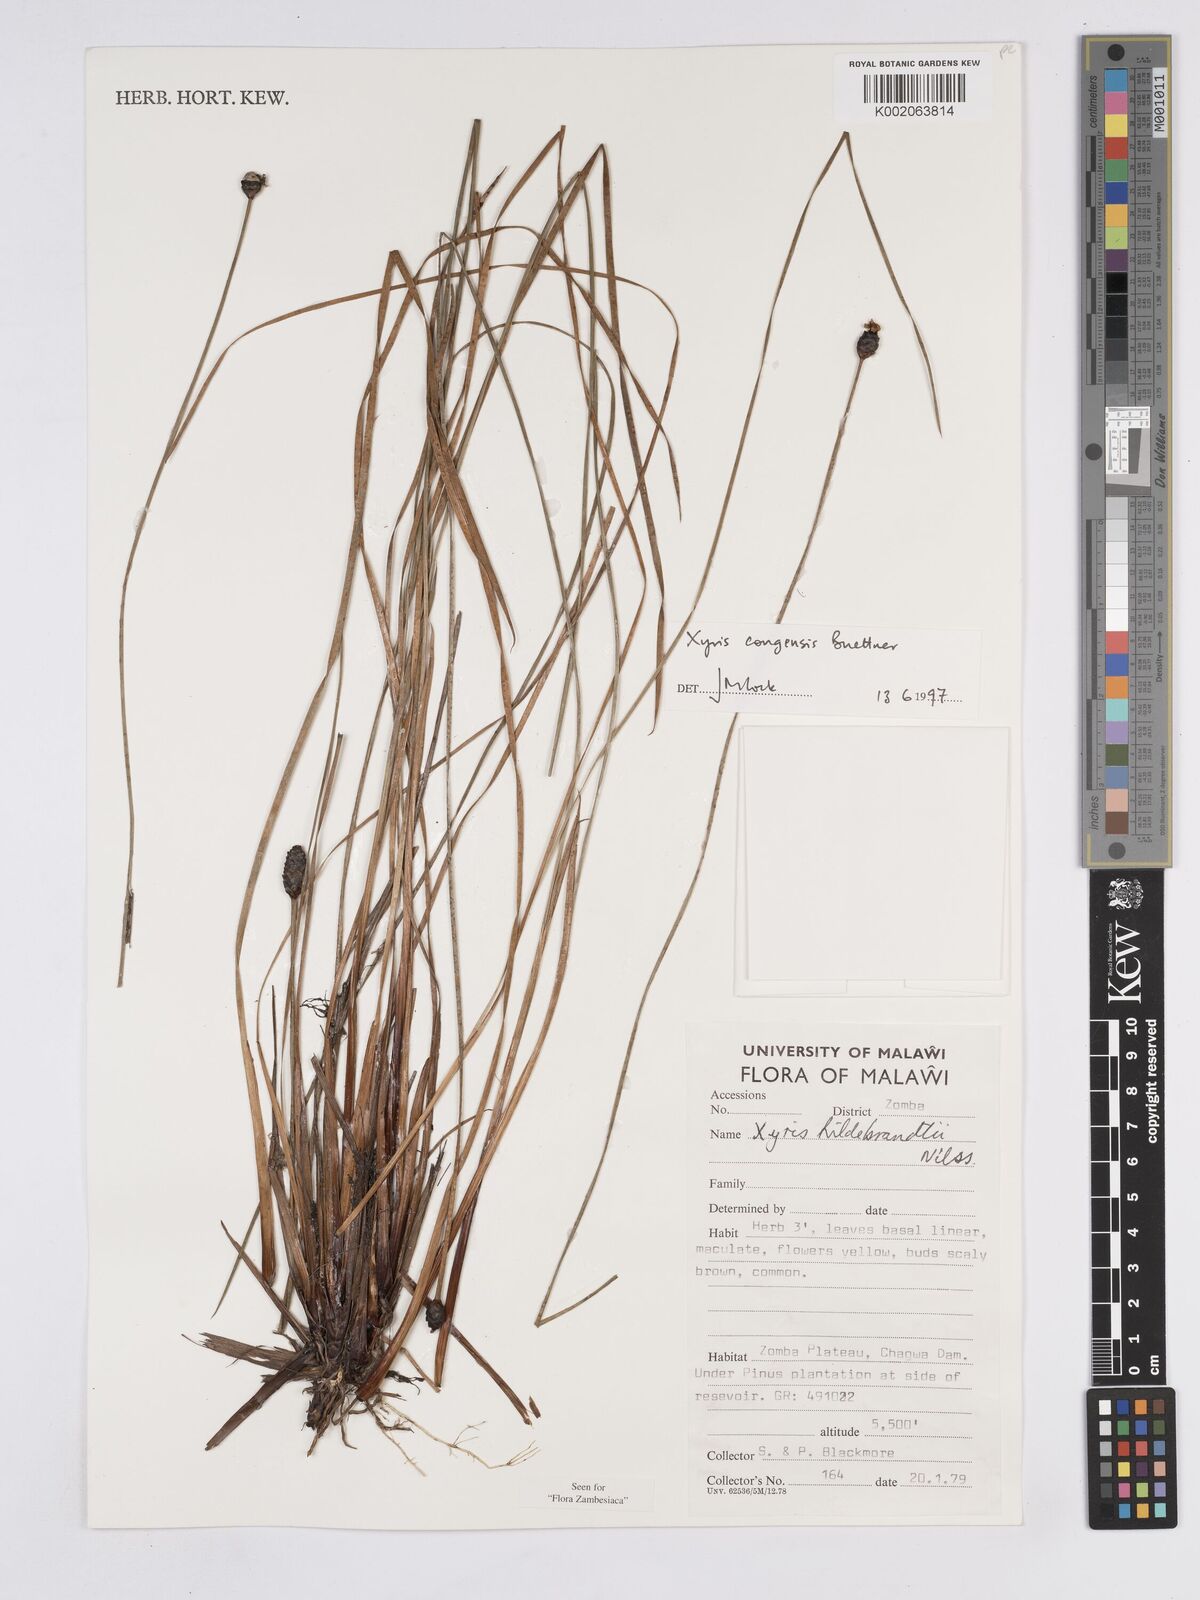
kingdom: Plantae
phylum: Tracheophyta
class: Liliopsida
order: Poales
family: Xyridaceae
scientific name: Xyridaceae
